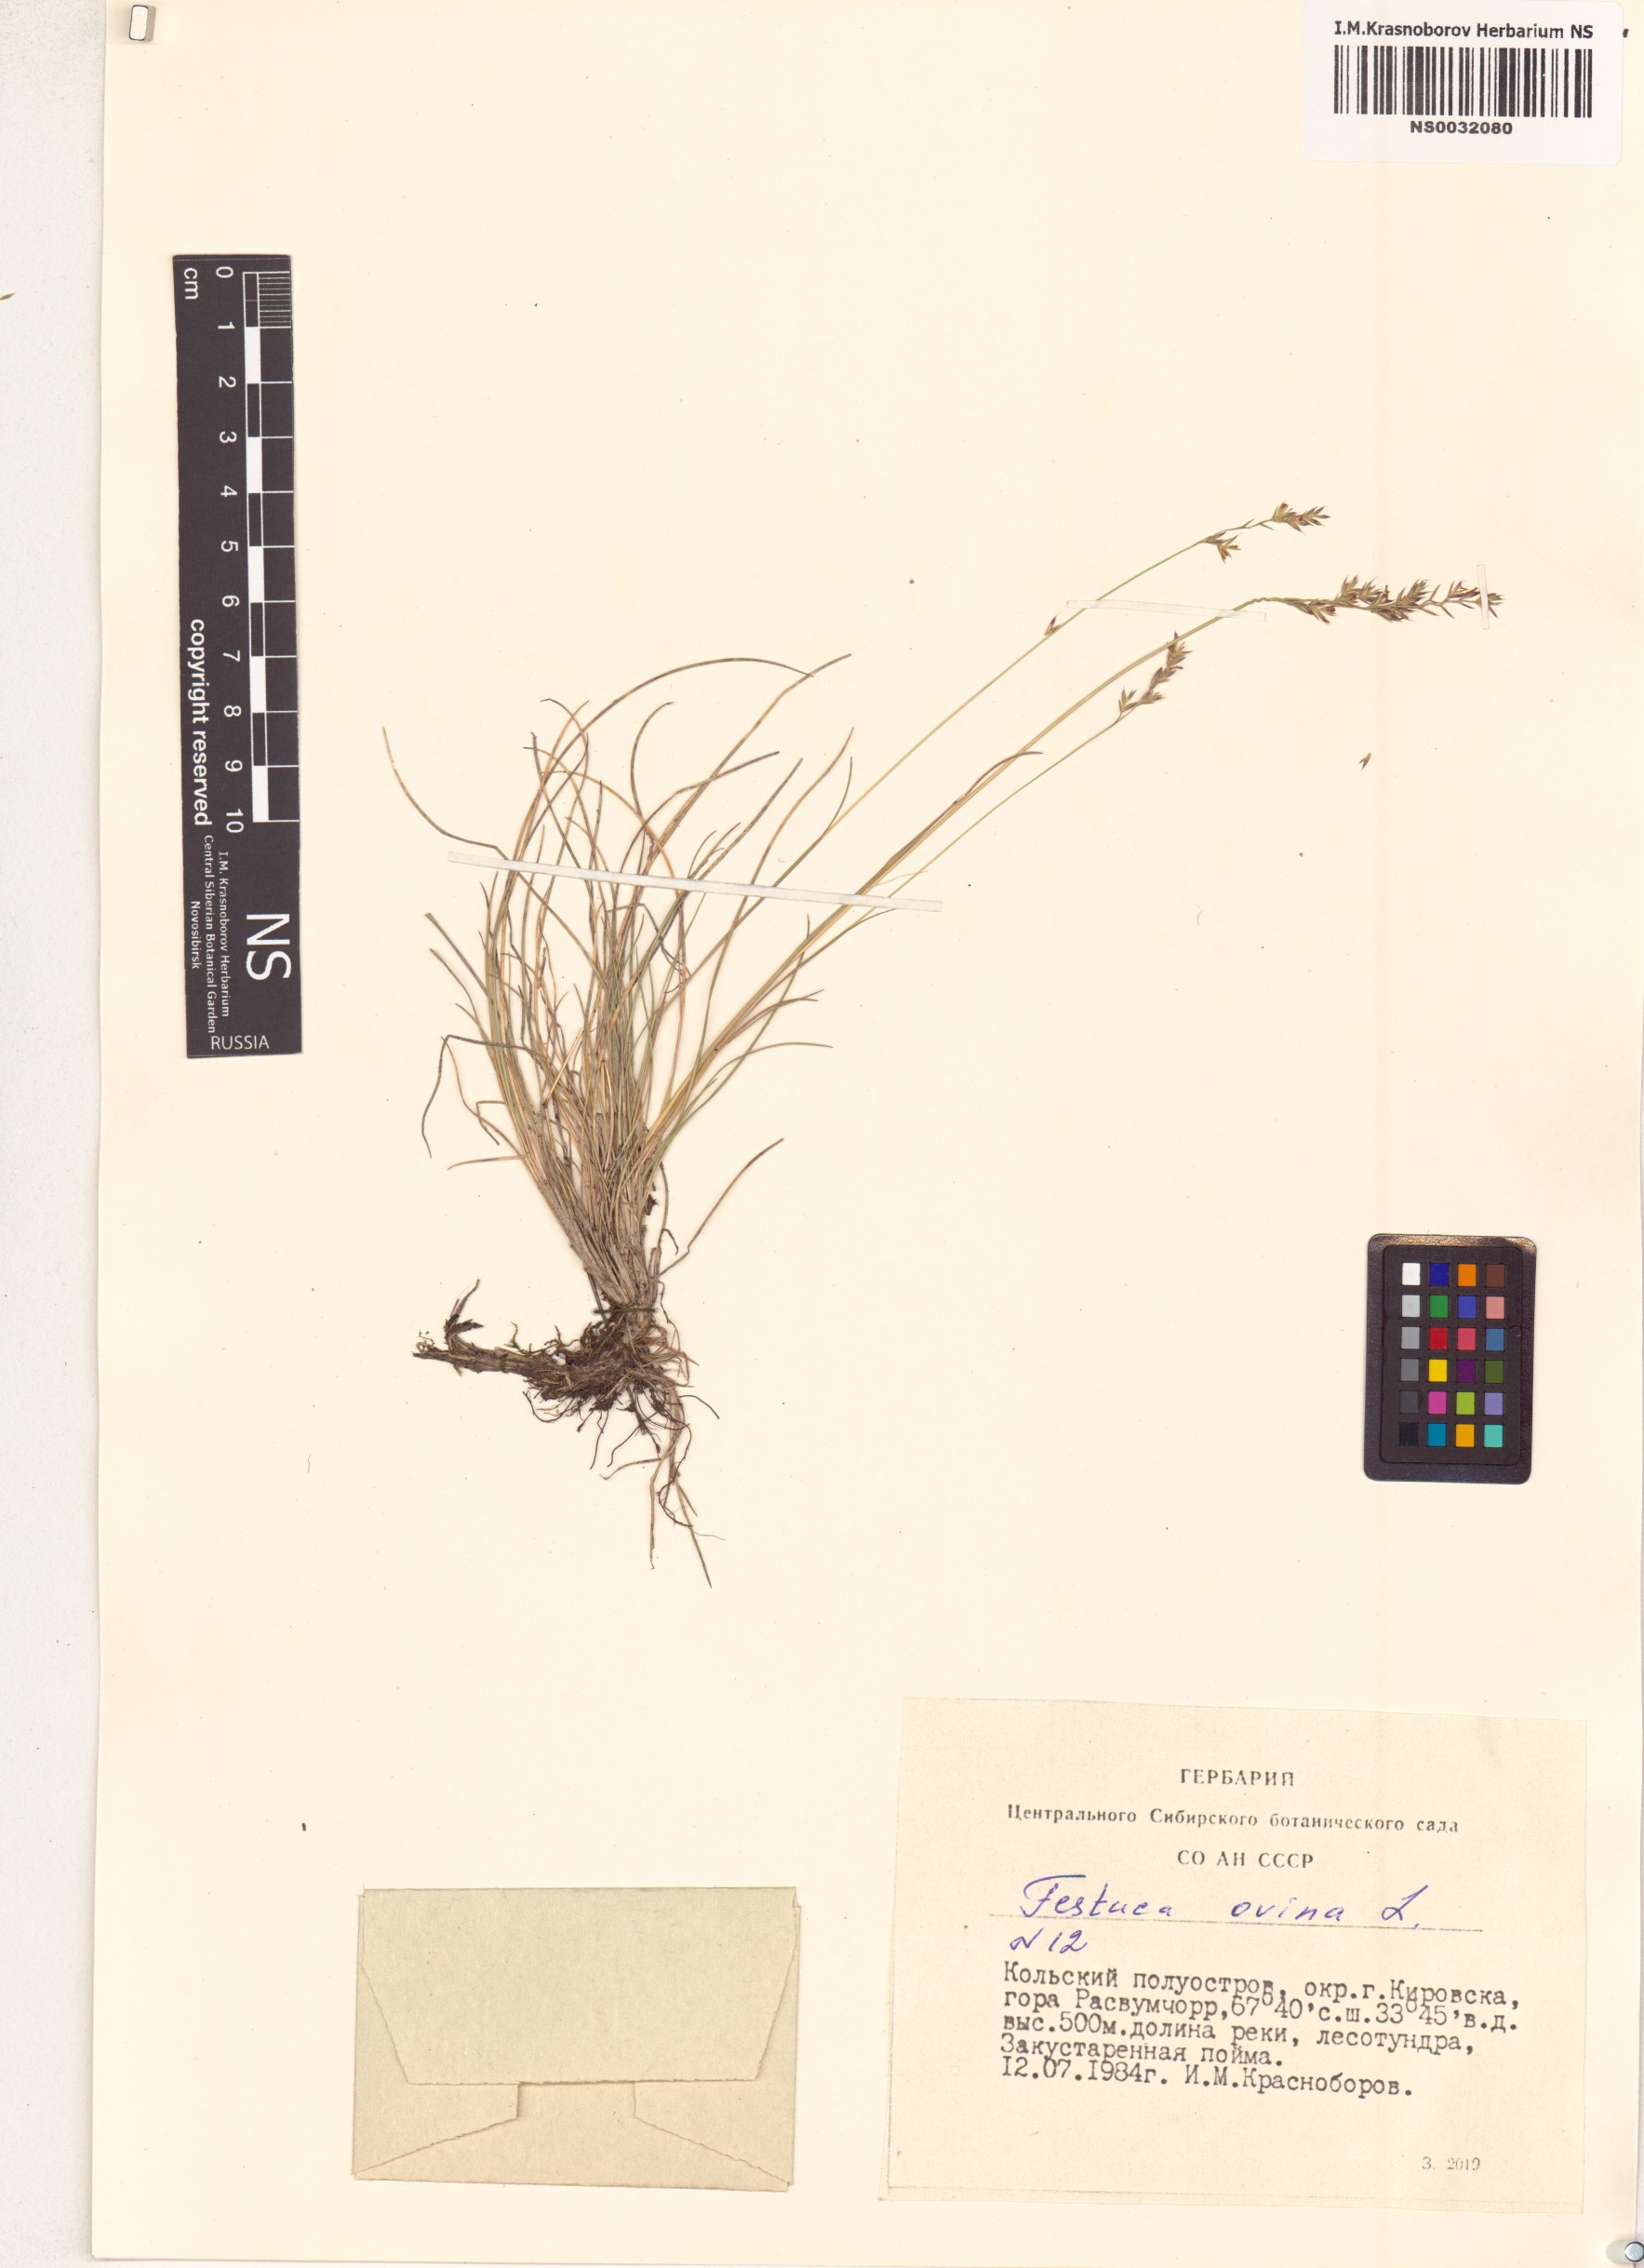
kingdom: Plantae
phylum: Tracheophyta
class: Liliopsida
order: Poales
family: Poaceae
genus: Festuca
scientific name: Festuca ovina
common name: Sheep fescue
